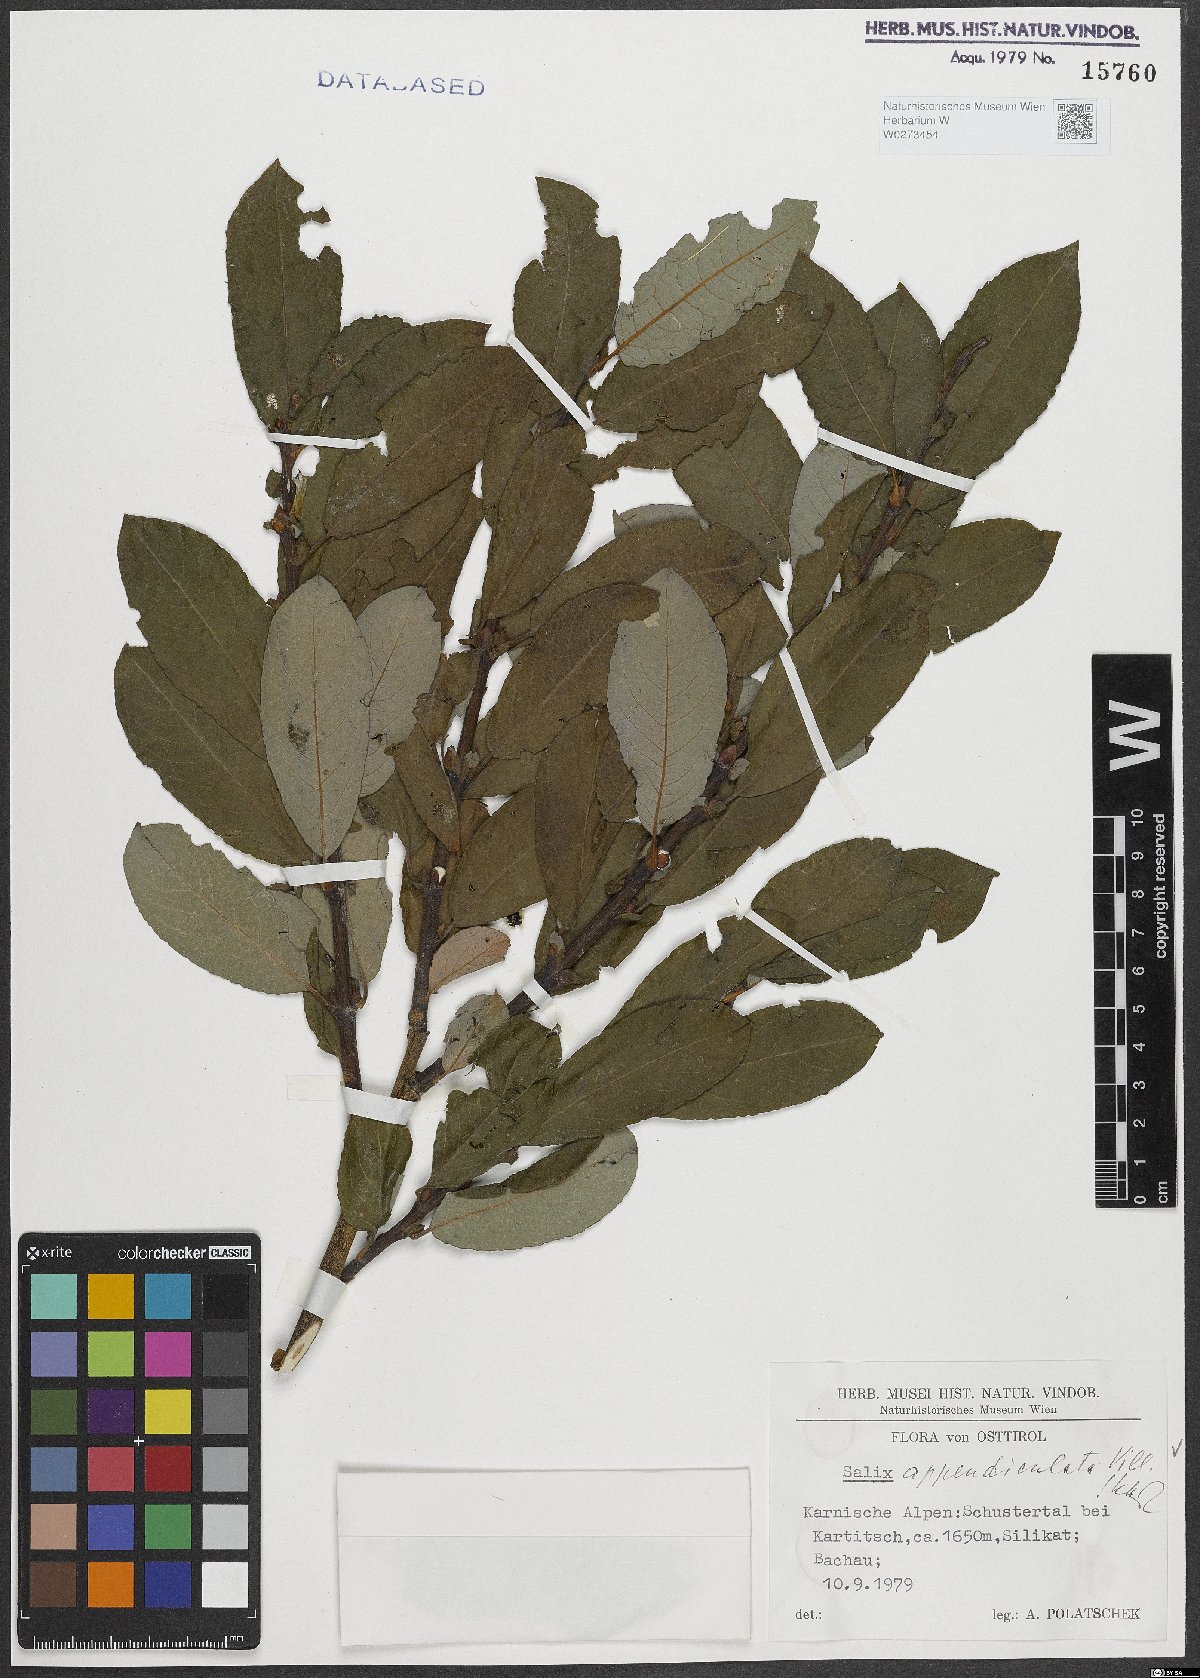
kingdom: Plantae
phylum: Tracheophyta
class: Magnoliopsida
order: Malpighiales
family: Salicaceae
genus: Salix
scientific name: Salix appendiculata
